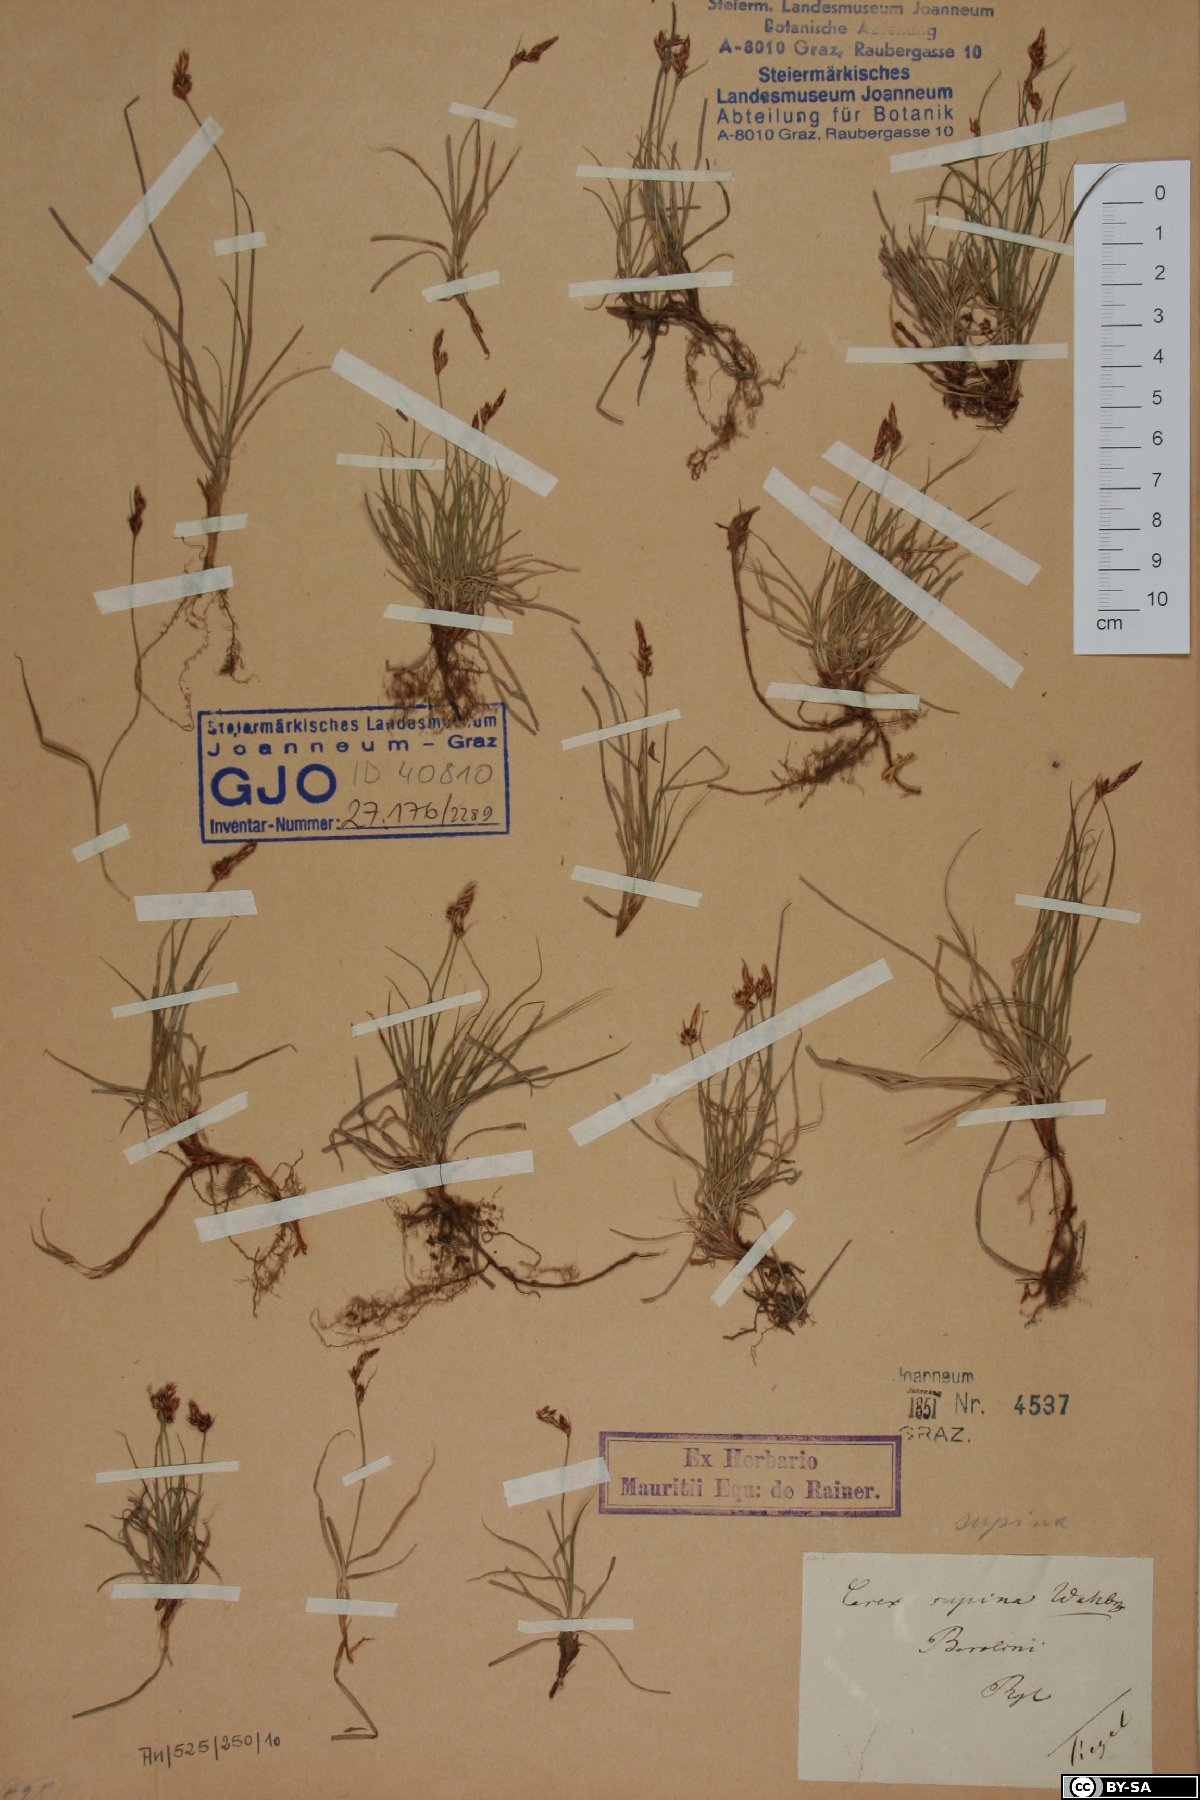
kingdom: Plantae
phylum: Tracheophyta
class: Liliopsida
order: Poales
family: Cyperaceae
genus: Carex
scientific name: Carex supina
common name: Lying-back sedge
